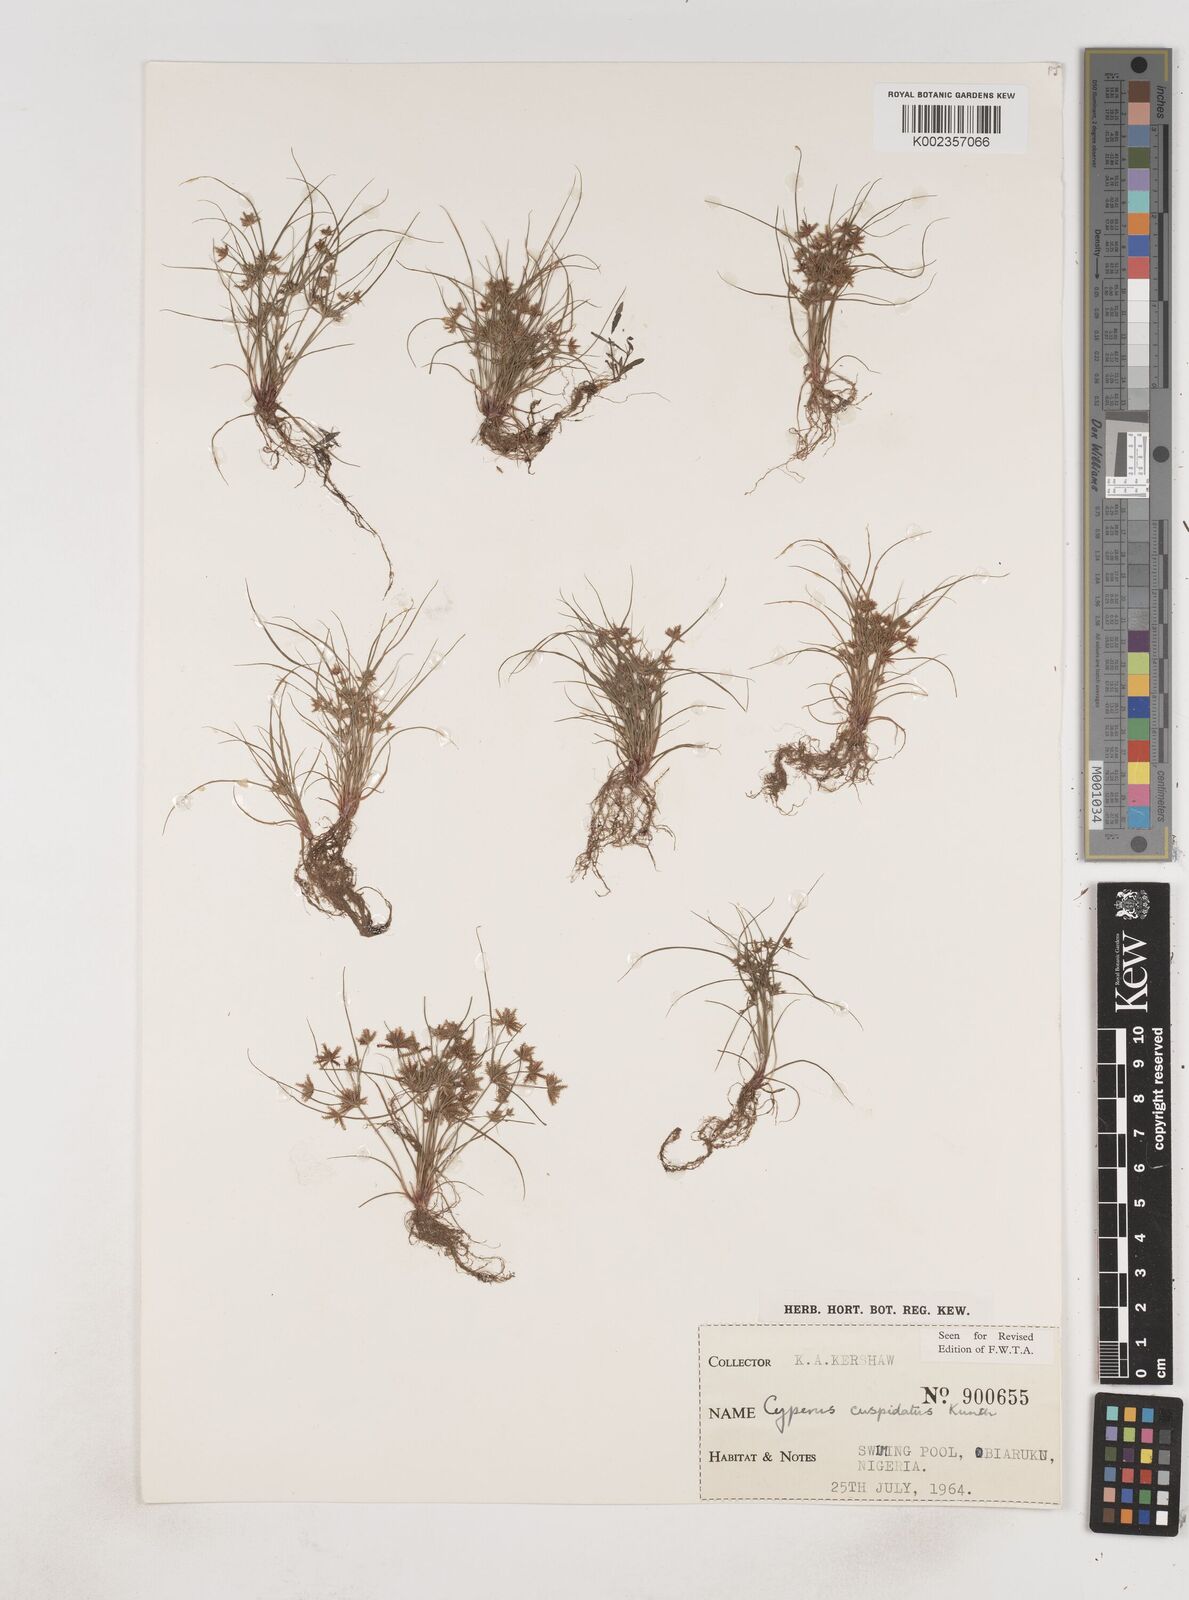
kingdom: Plantae
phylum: Tracheophyta
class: Liliopsida
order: Poales
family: Cyperaceae
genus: Cyperus
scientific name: Cyperus
